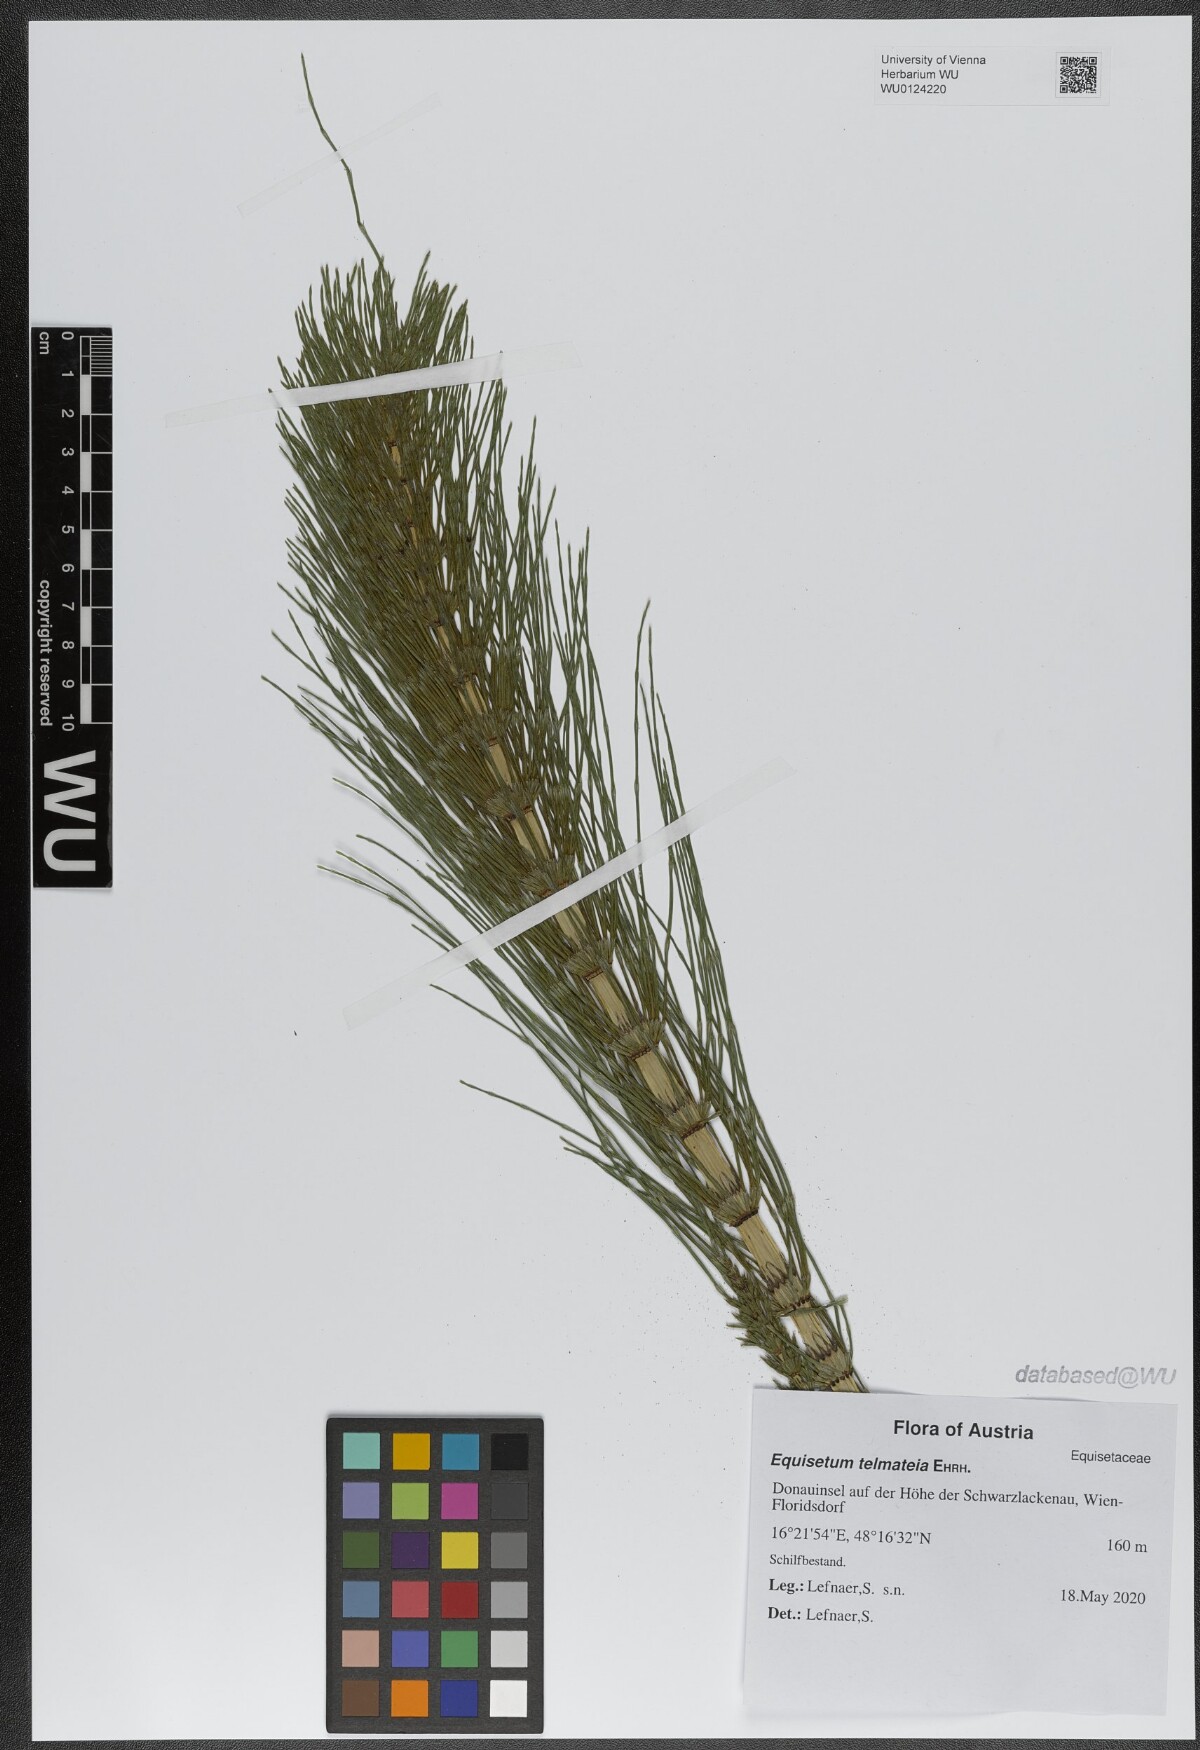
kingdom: Plantae
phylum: Tracheophyta
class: Polypodiopsida
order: Equisetales
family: Equisetaceae
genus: Equisetum
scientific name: Equisetum telmateia
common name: Great horsetail
